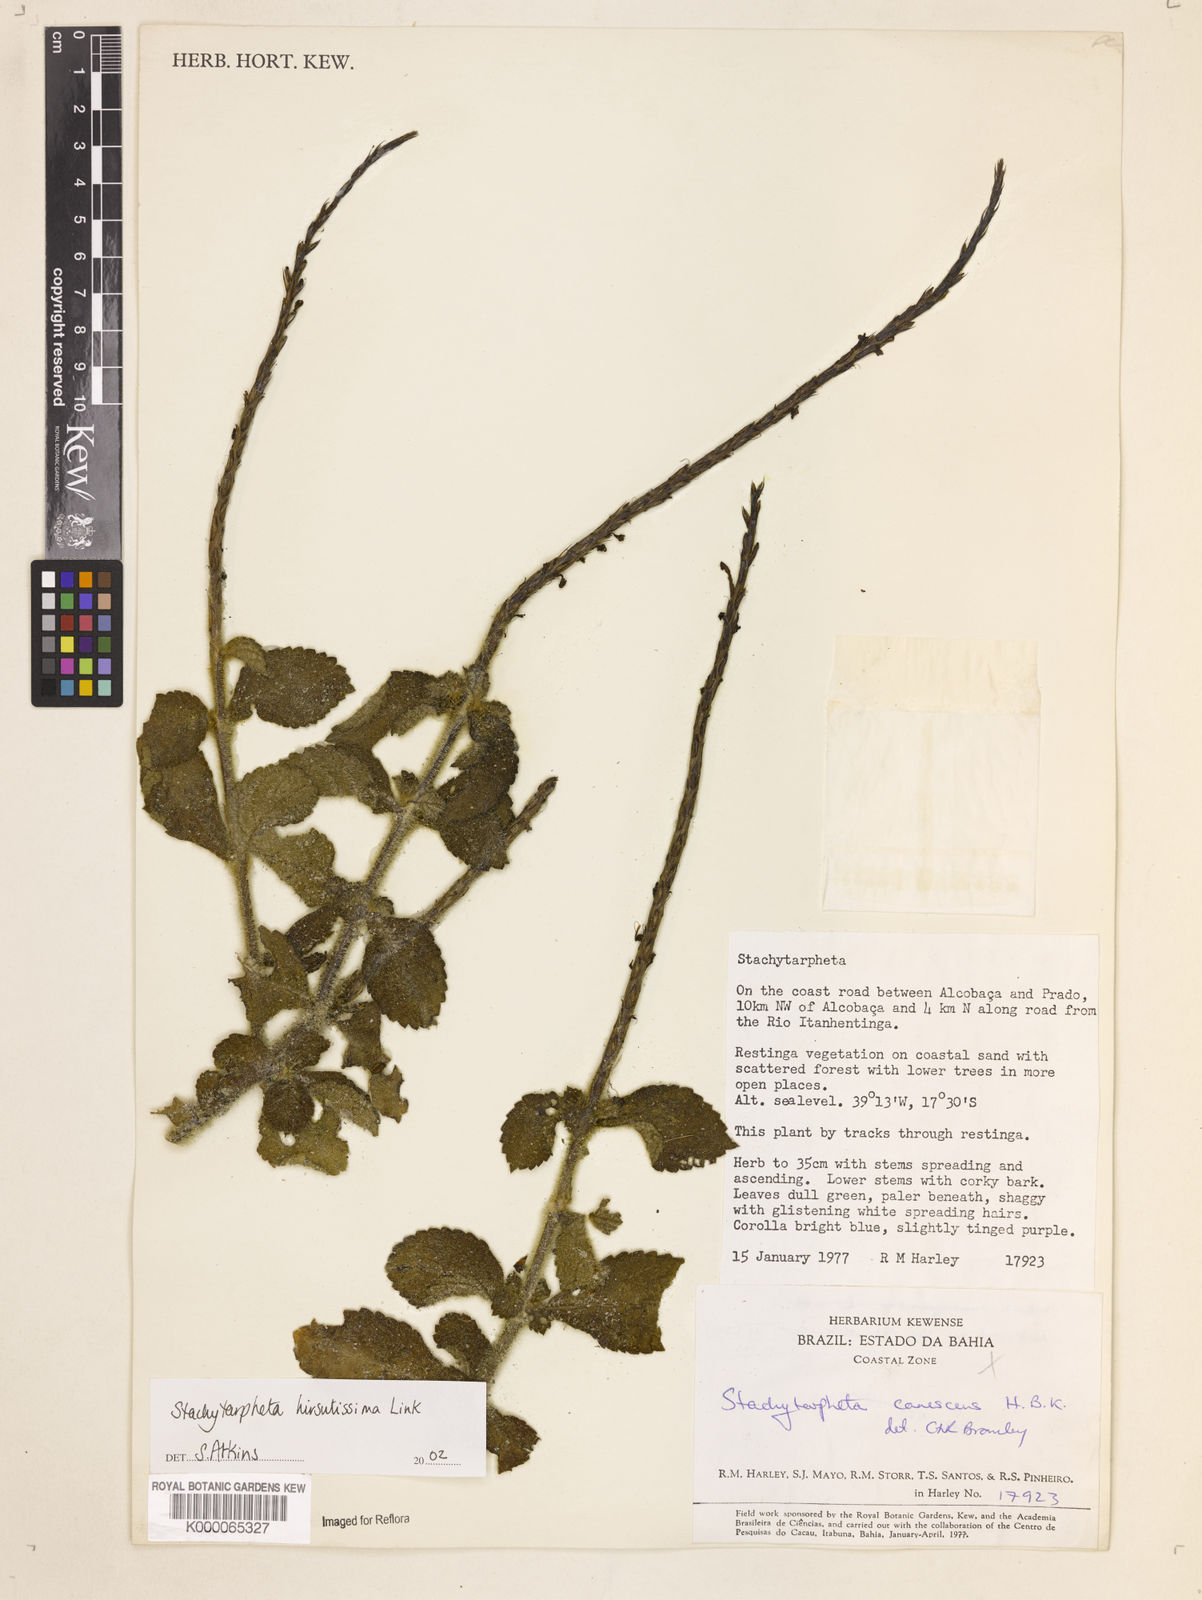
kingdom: Plantae
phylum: Tracheophyta
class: Magnoliopsida
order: Lamiales
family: Verbenaceae
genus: Stachytarpheta
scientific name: Stachytarpheta hirsutissima
